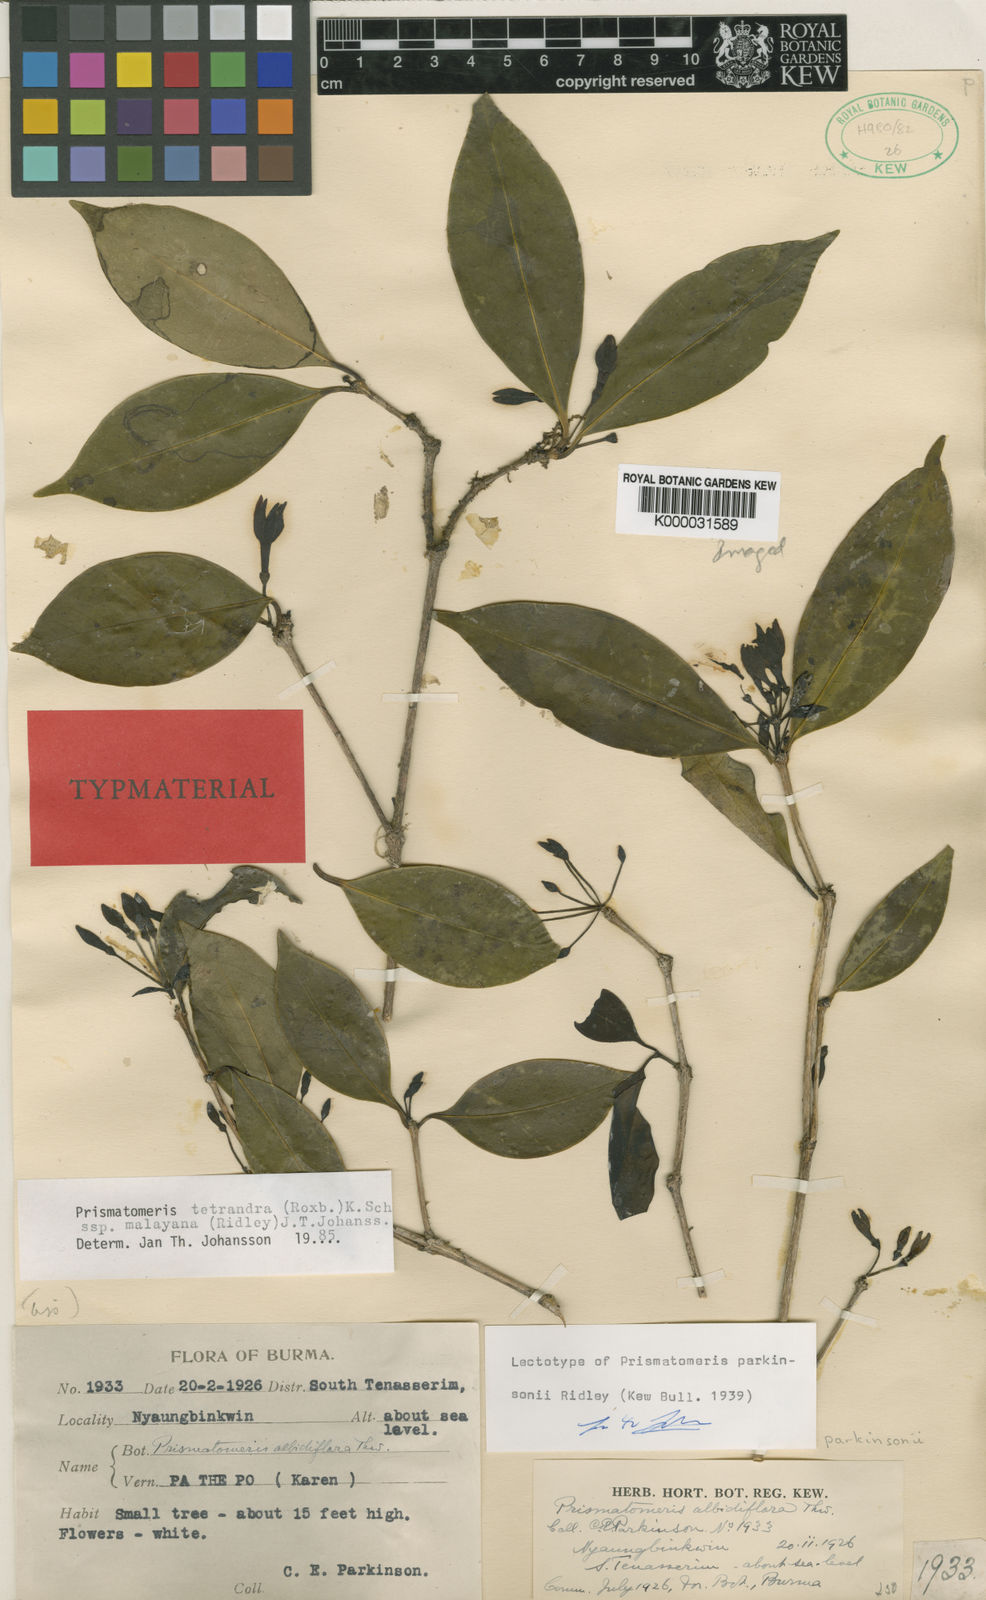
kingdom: Plantae
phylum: Tracheophyta
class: Magnoliopsida
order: Gentianales
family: Rubiaceae
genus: Prismatomeris
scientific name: Prismatomeris tetrandra
